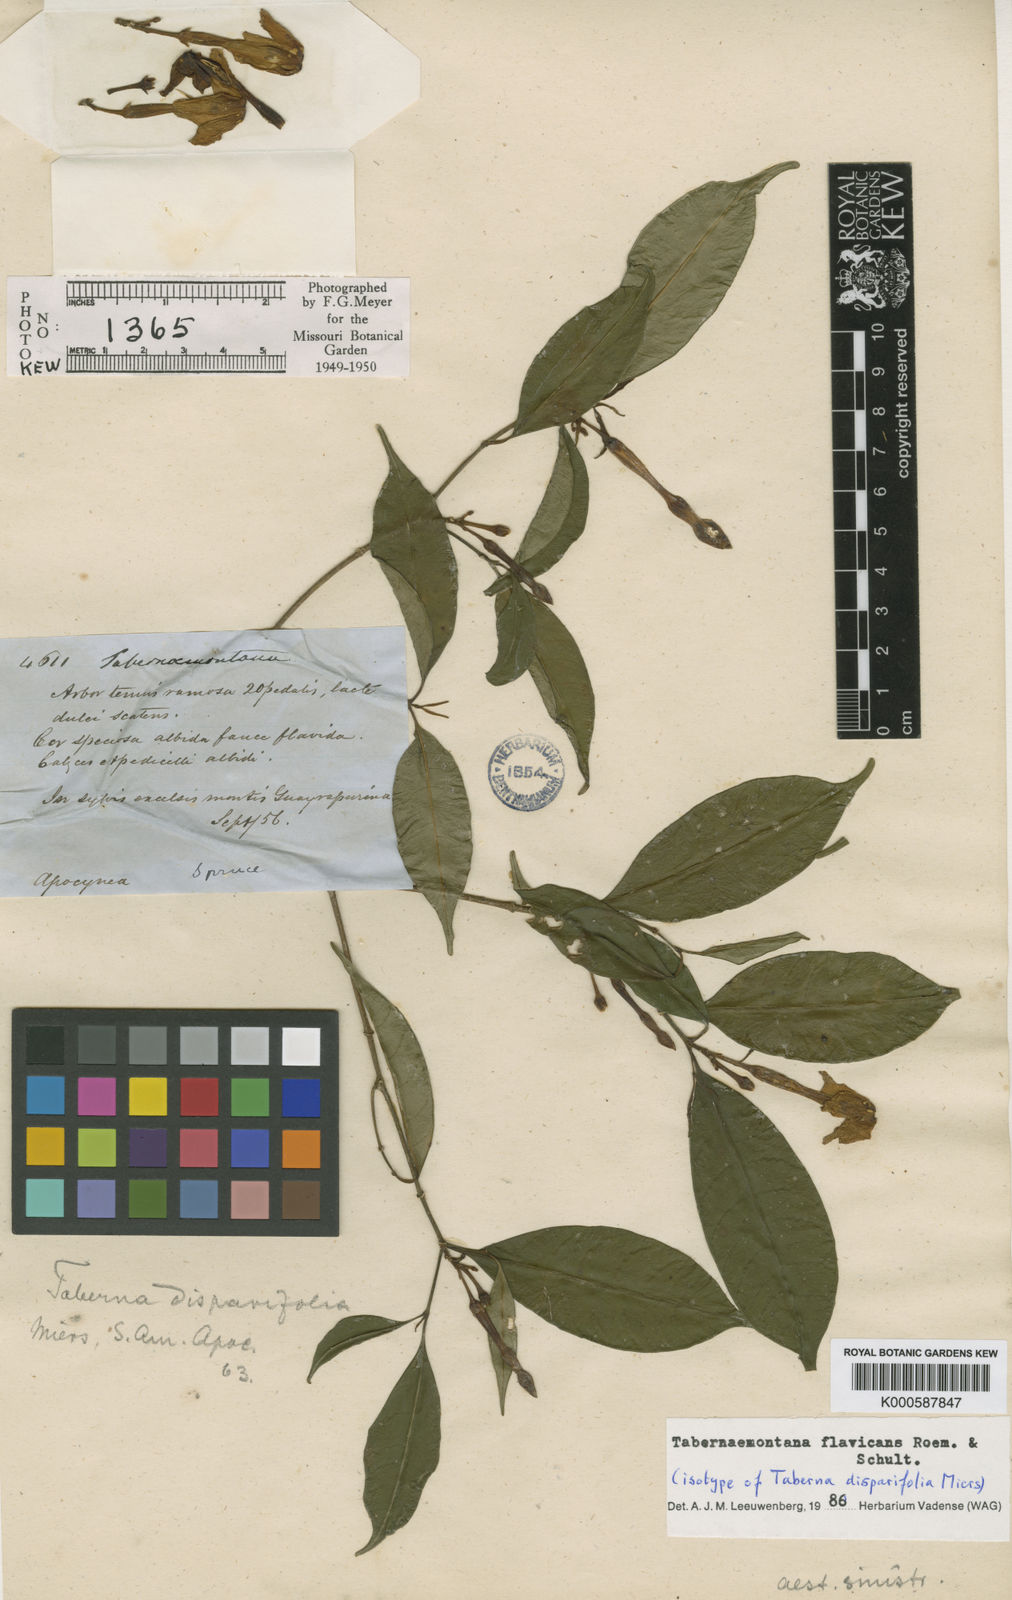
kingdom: Plantae
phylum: Tracheophyta
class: Magnoliopsida
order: Gentianales
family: Apocynaceae
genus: Tabernaemontana
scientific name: Tabernaemontana flavicans
